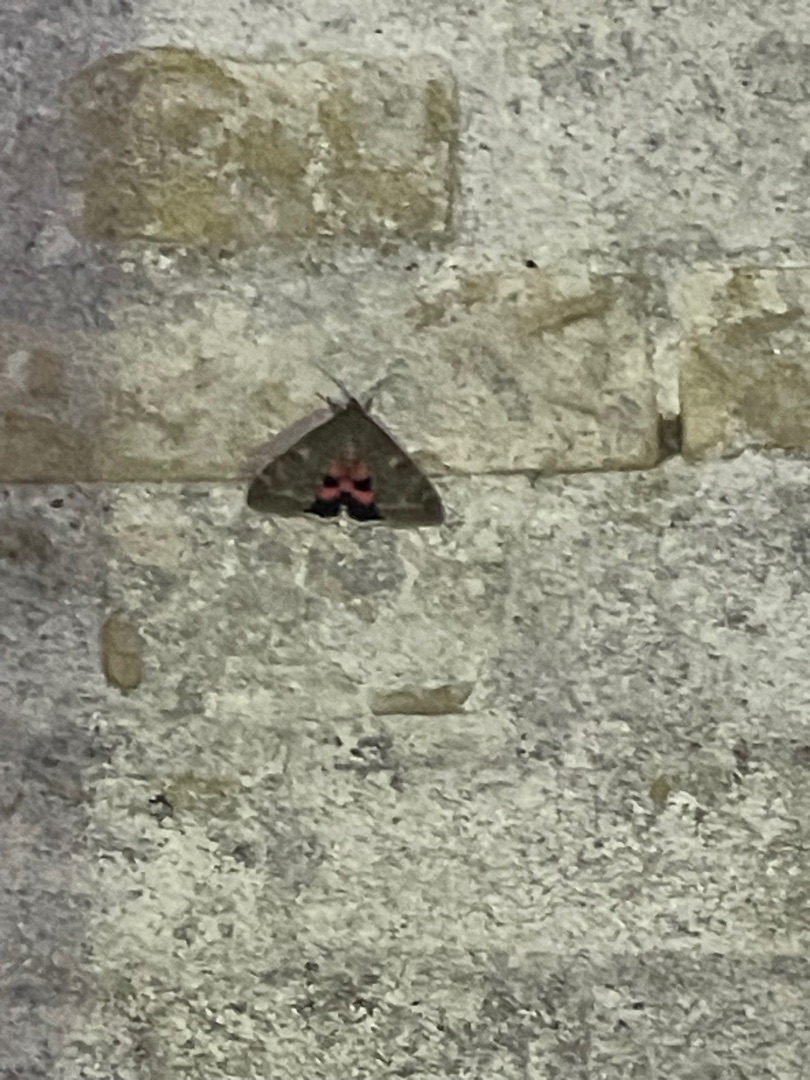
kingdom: Animalia
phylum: Arthropoda
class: Insecta
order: Lepidoptera
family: Erebidae
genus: Catocala
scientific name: Catocala
